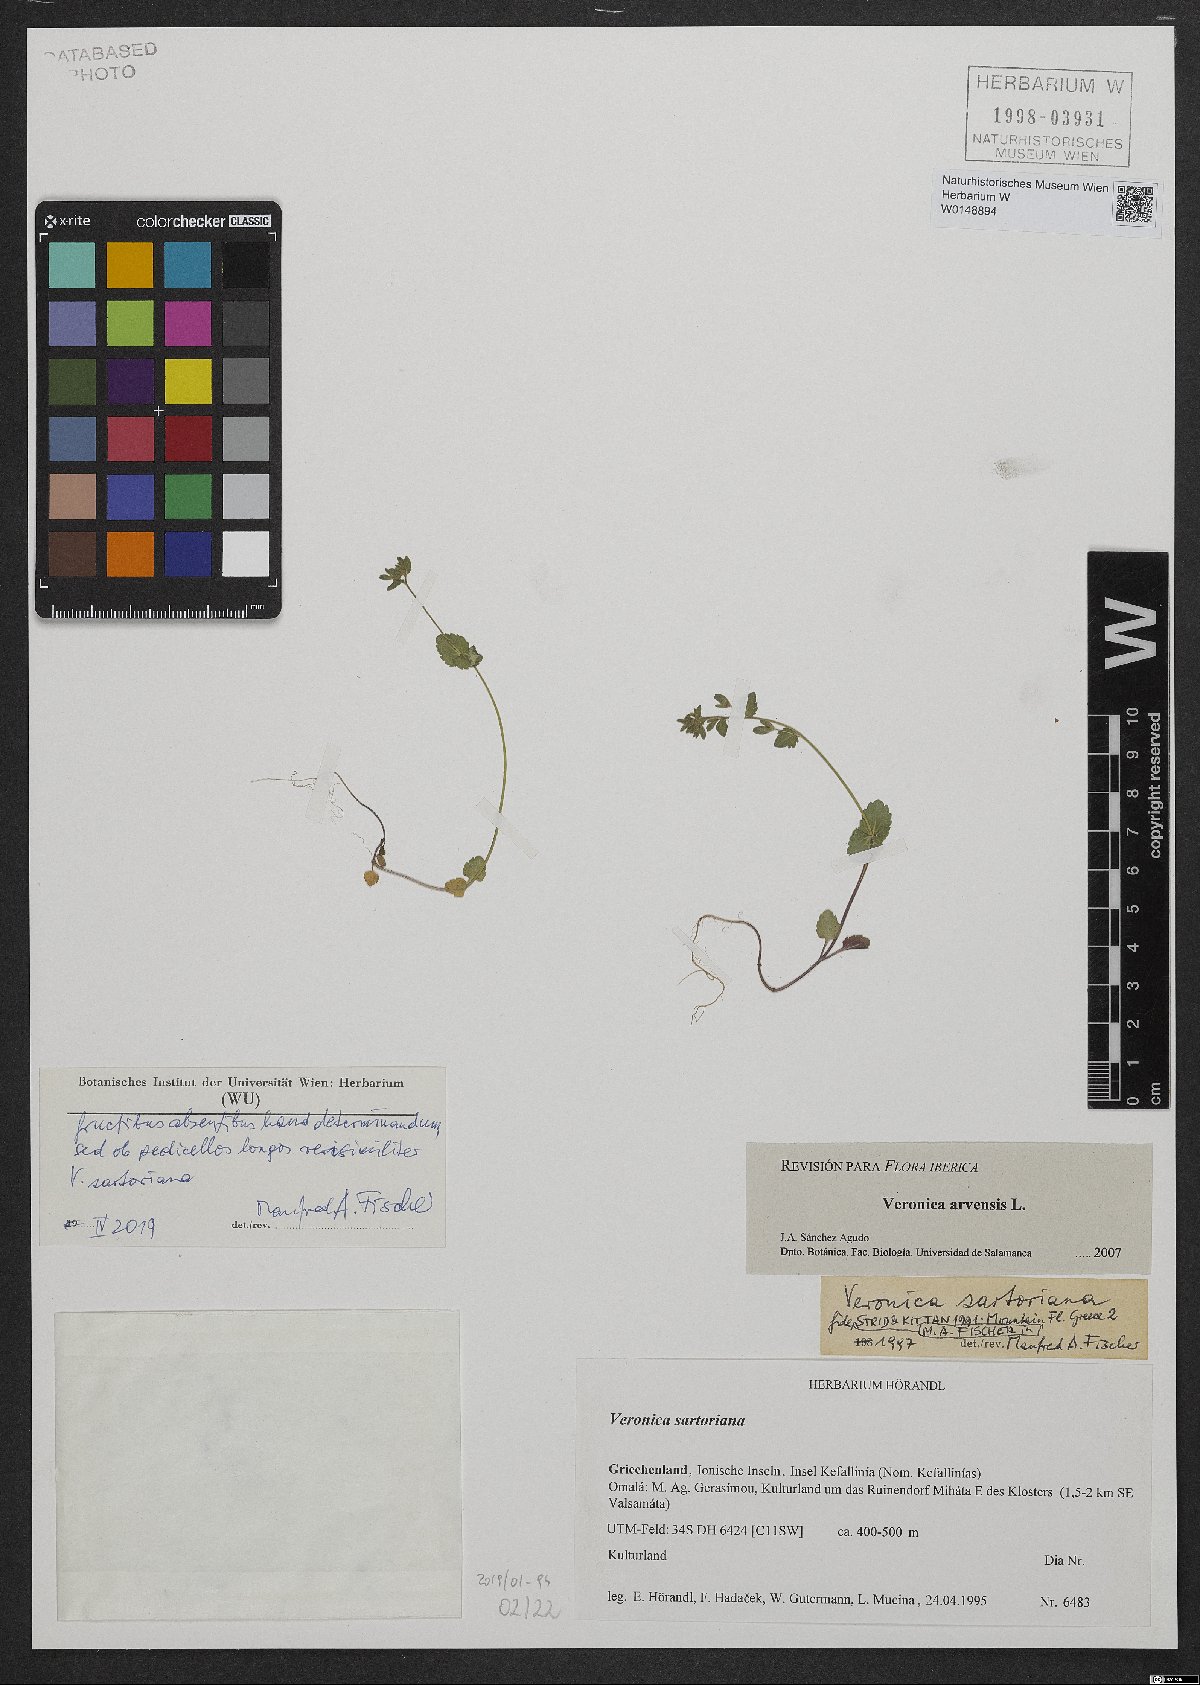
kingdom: Plantae
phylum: Tracheophyta
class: Magnoliopsida
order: Lamiales
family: Plantaginaceae
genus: Veronica
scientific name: Veronica sartoriana
